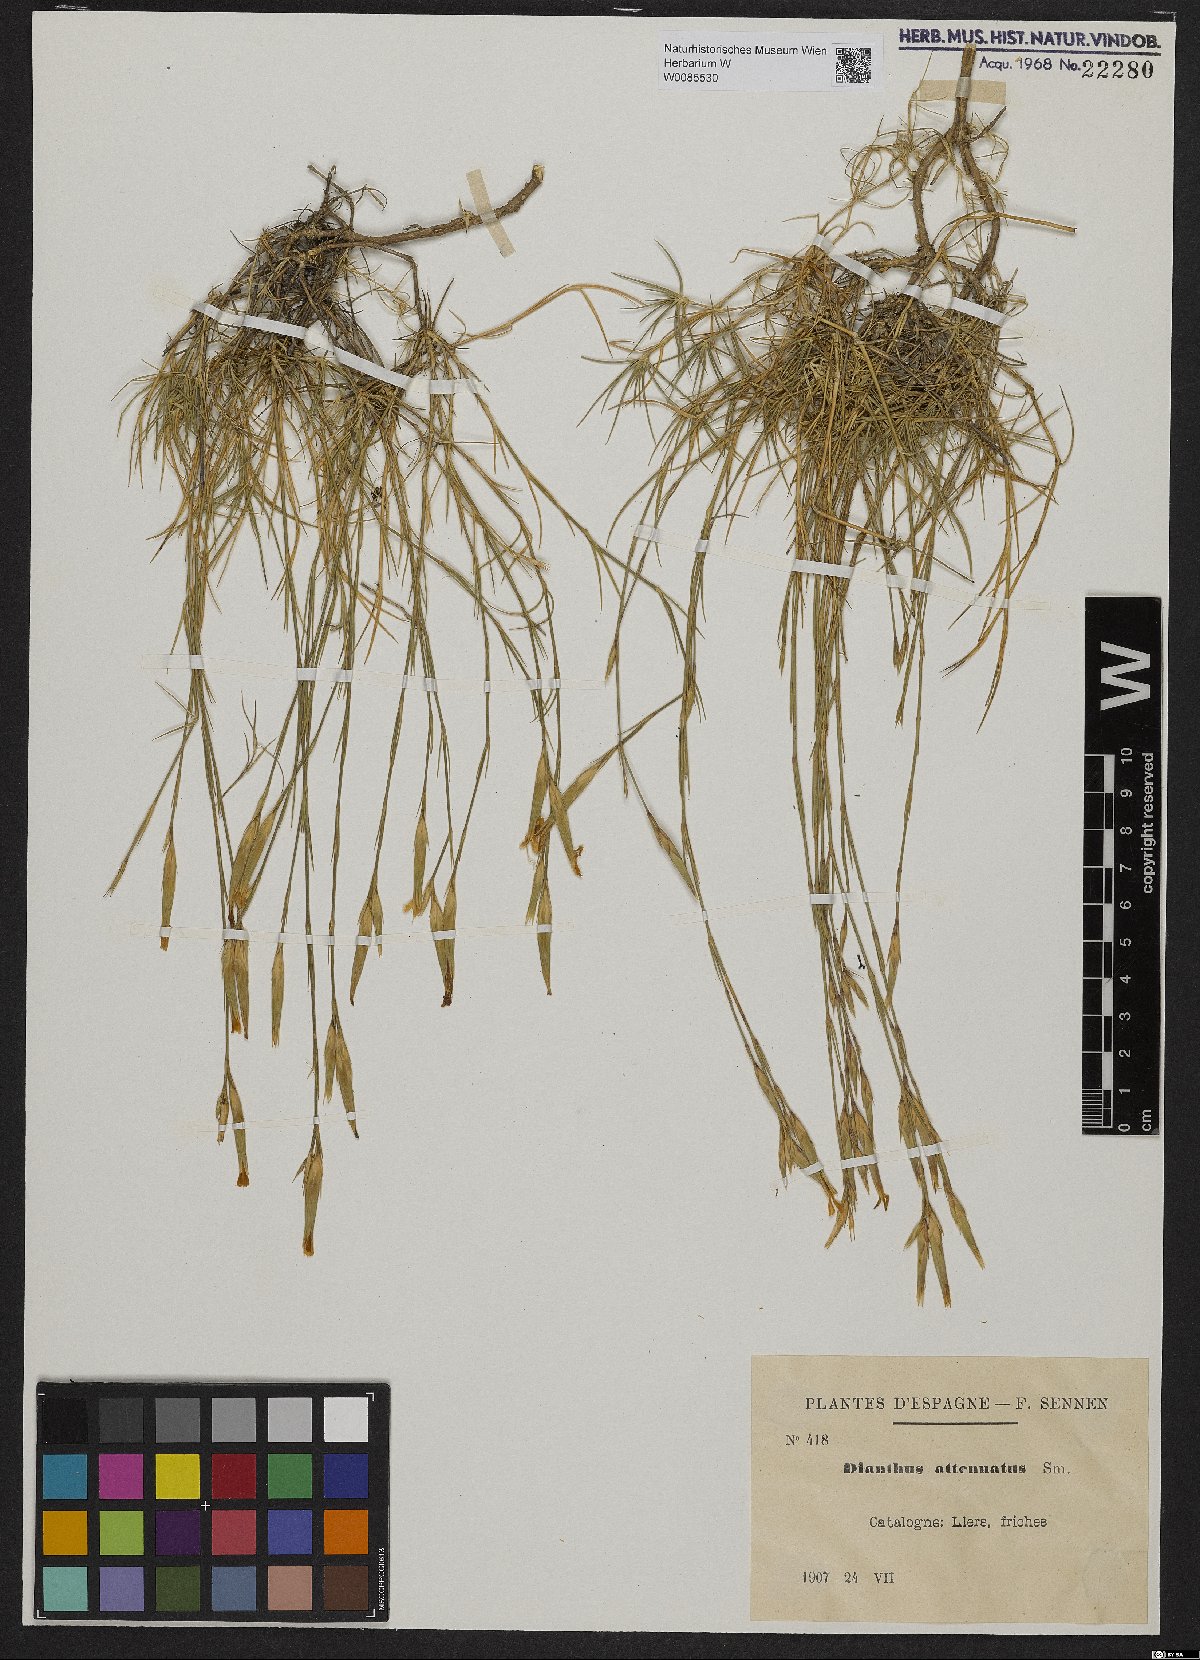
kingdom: Plantae
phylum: Tracheophyta
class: Magnoliopsida
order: Caryophyllales
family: Caryophyllaceae
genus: Dianthus
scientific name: Dianthus pyrenaicus
